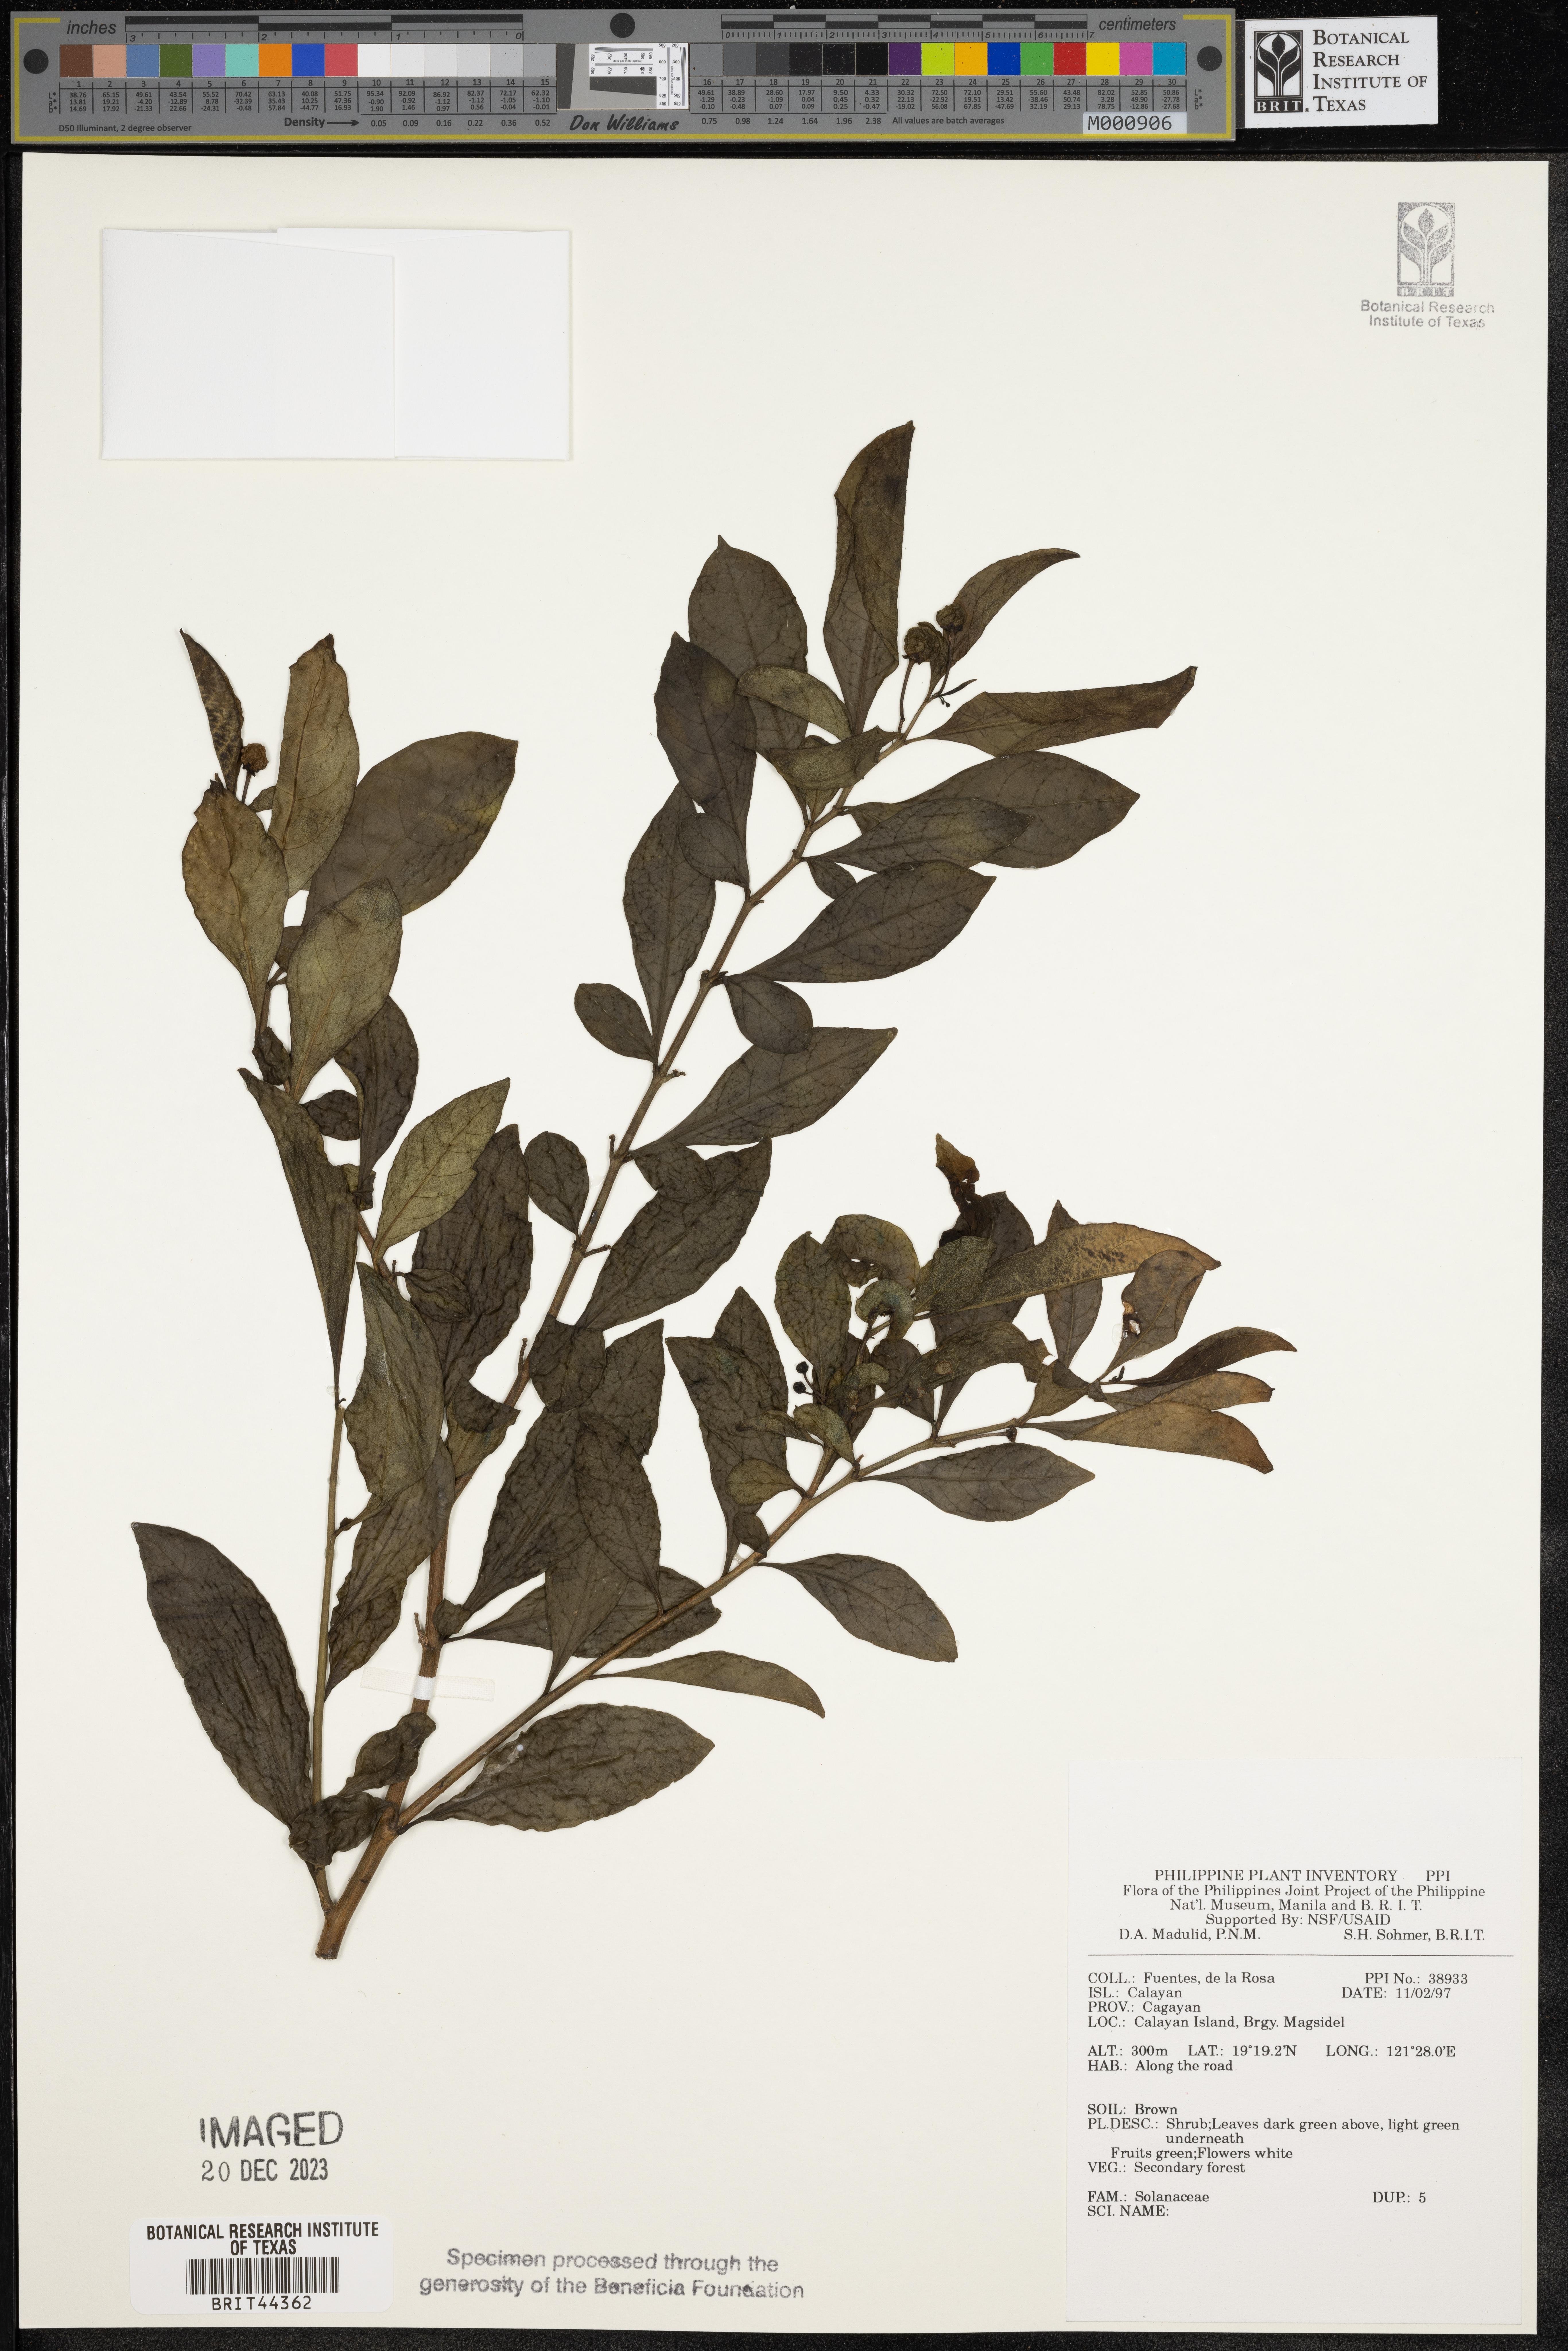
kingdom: Plantae
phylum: Tracheophyta
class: Magnoliopsida
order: Solanales
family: Solanaceae
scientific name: Solanaceae
